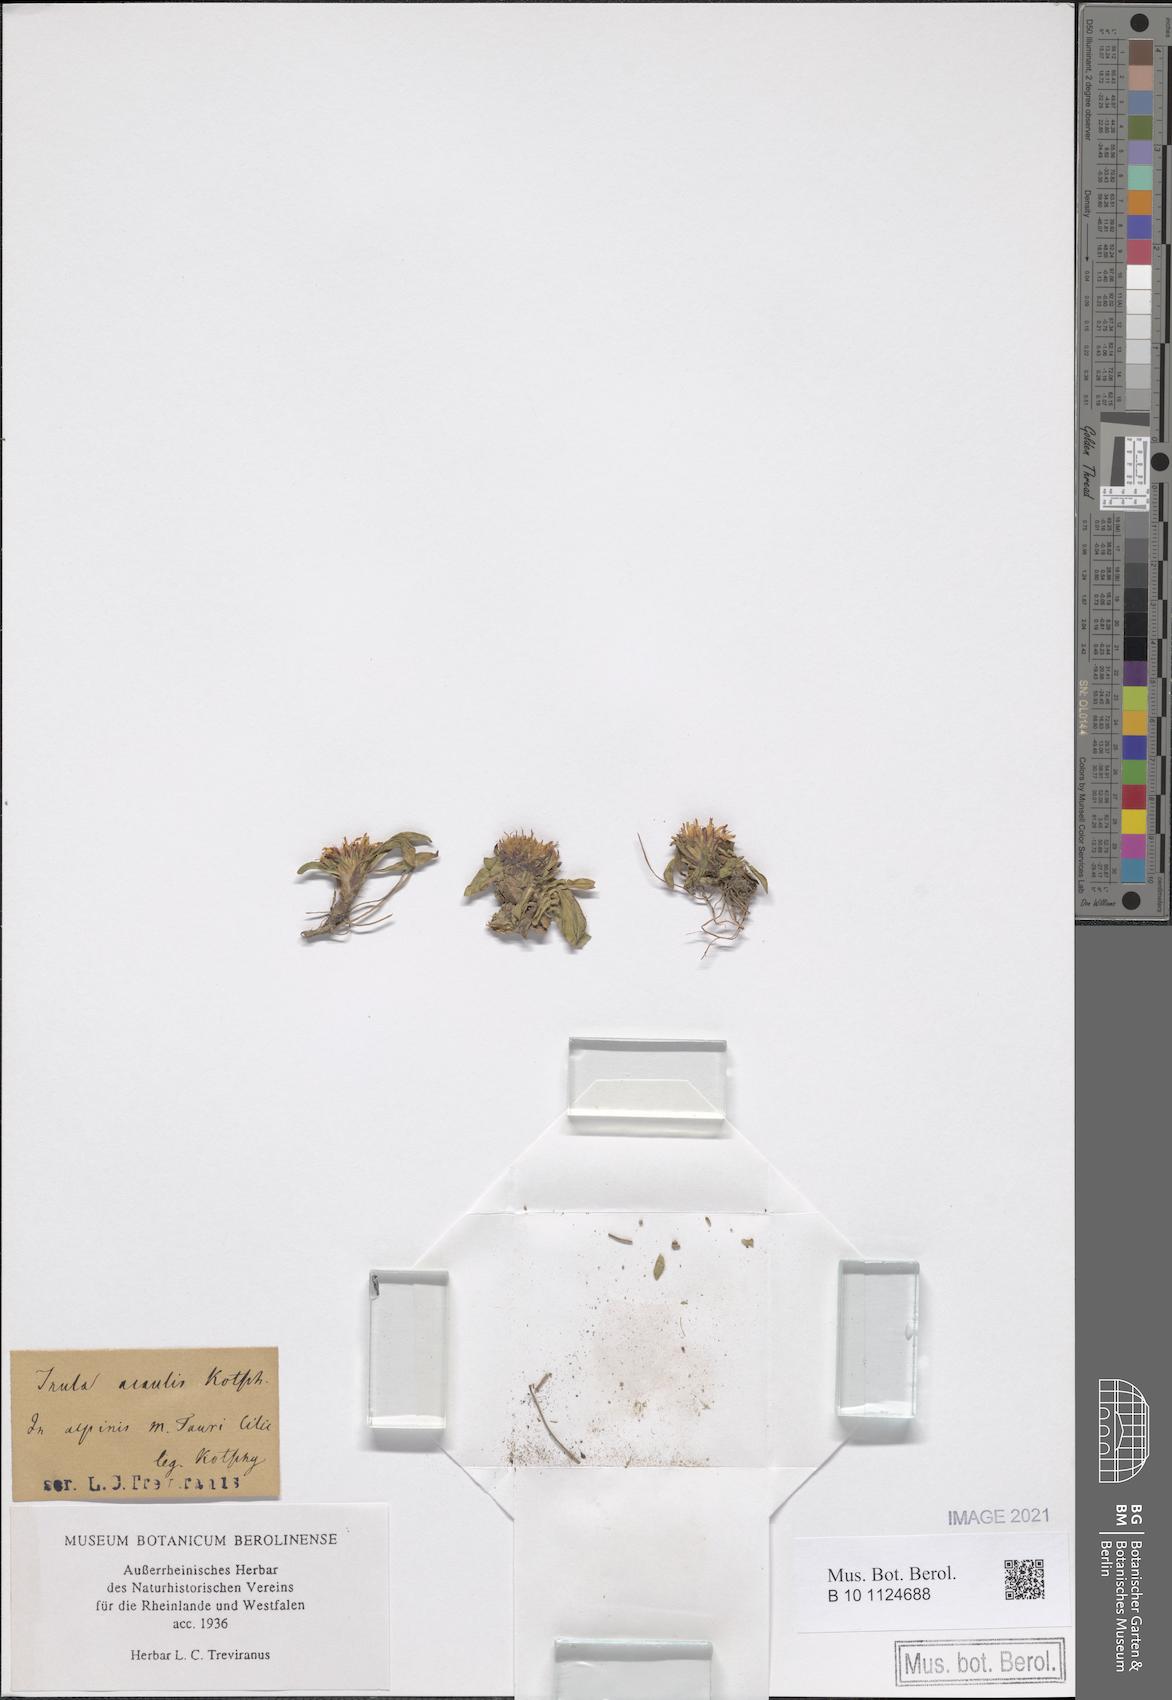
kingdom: Plantae
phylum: Tracheophyta
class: Magnoliopsida
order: Asterales
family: Asteraceae
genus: Inula
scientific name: Inula acaulis
